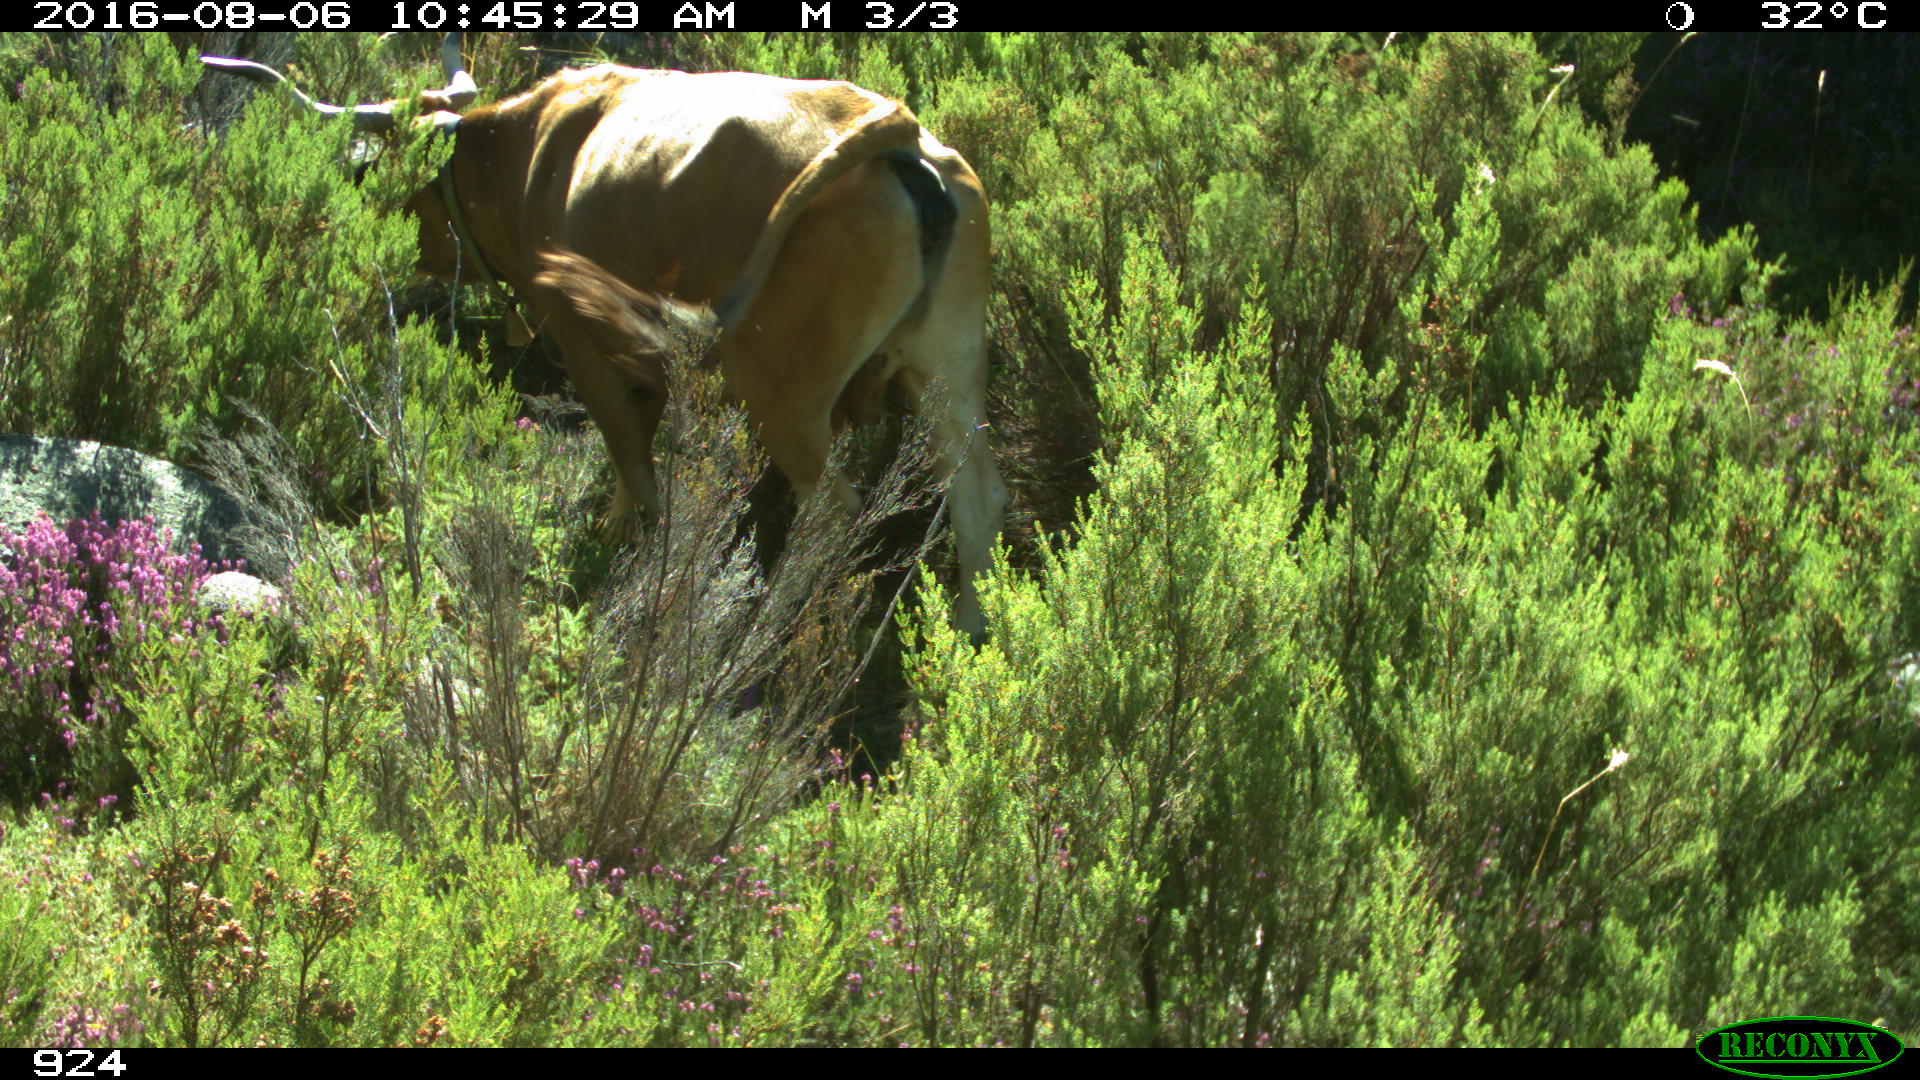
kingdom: Animalia
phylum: Chordata
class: Mammalia
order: Artiodactyla
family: Bovidae
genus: Bos
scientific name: Bos taurus
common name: Domesticated cattle
